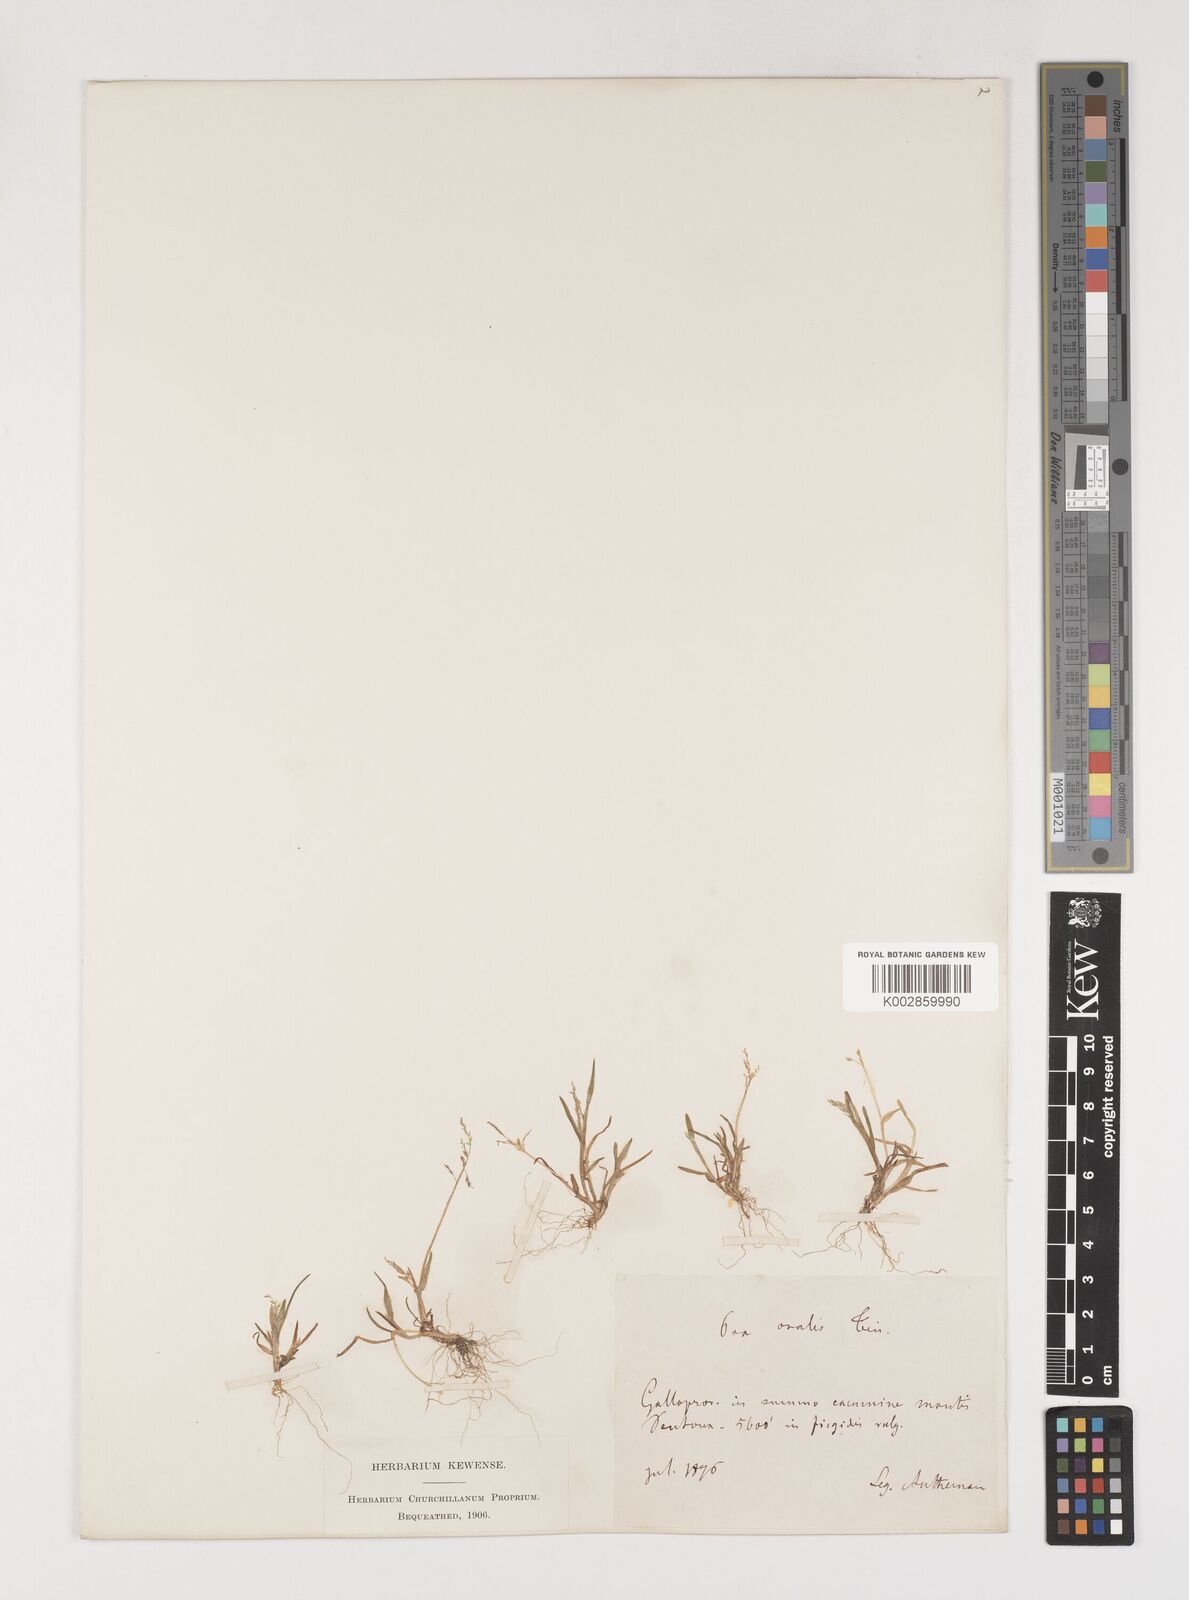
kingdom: Plantae
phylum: Tracheophyta
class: Liliopsida
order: Poales
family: Poaceae
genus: Poa
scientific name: Poa infirma
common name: Weak bluegrass
